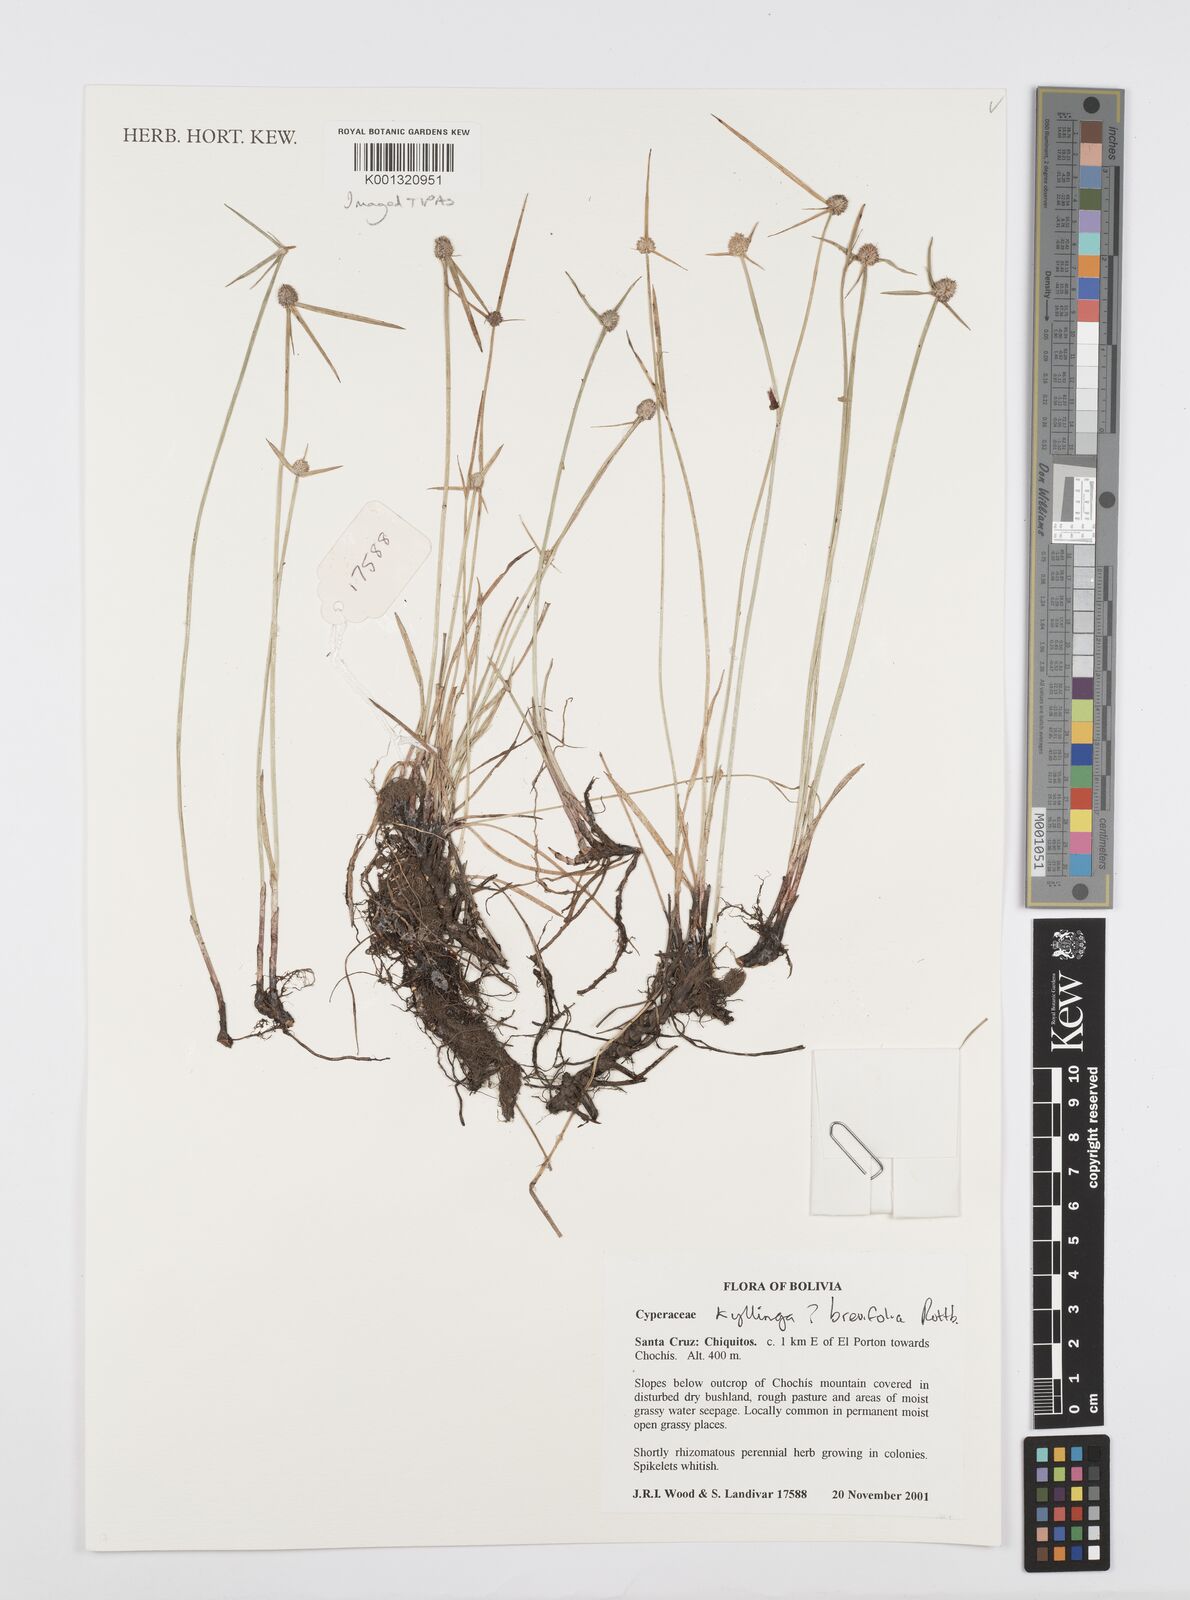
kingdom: Plantae
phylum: Tracheophyta
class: Liliopsida
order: Poales
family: Cyperaceae
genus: Cyperus
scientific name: Cyperus brevifolius
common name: Globe kyllinga
